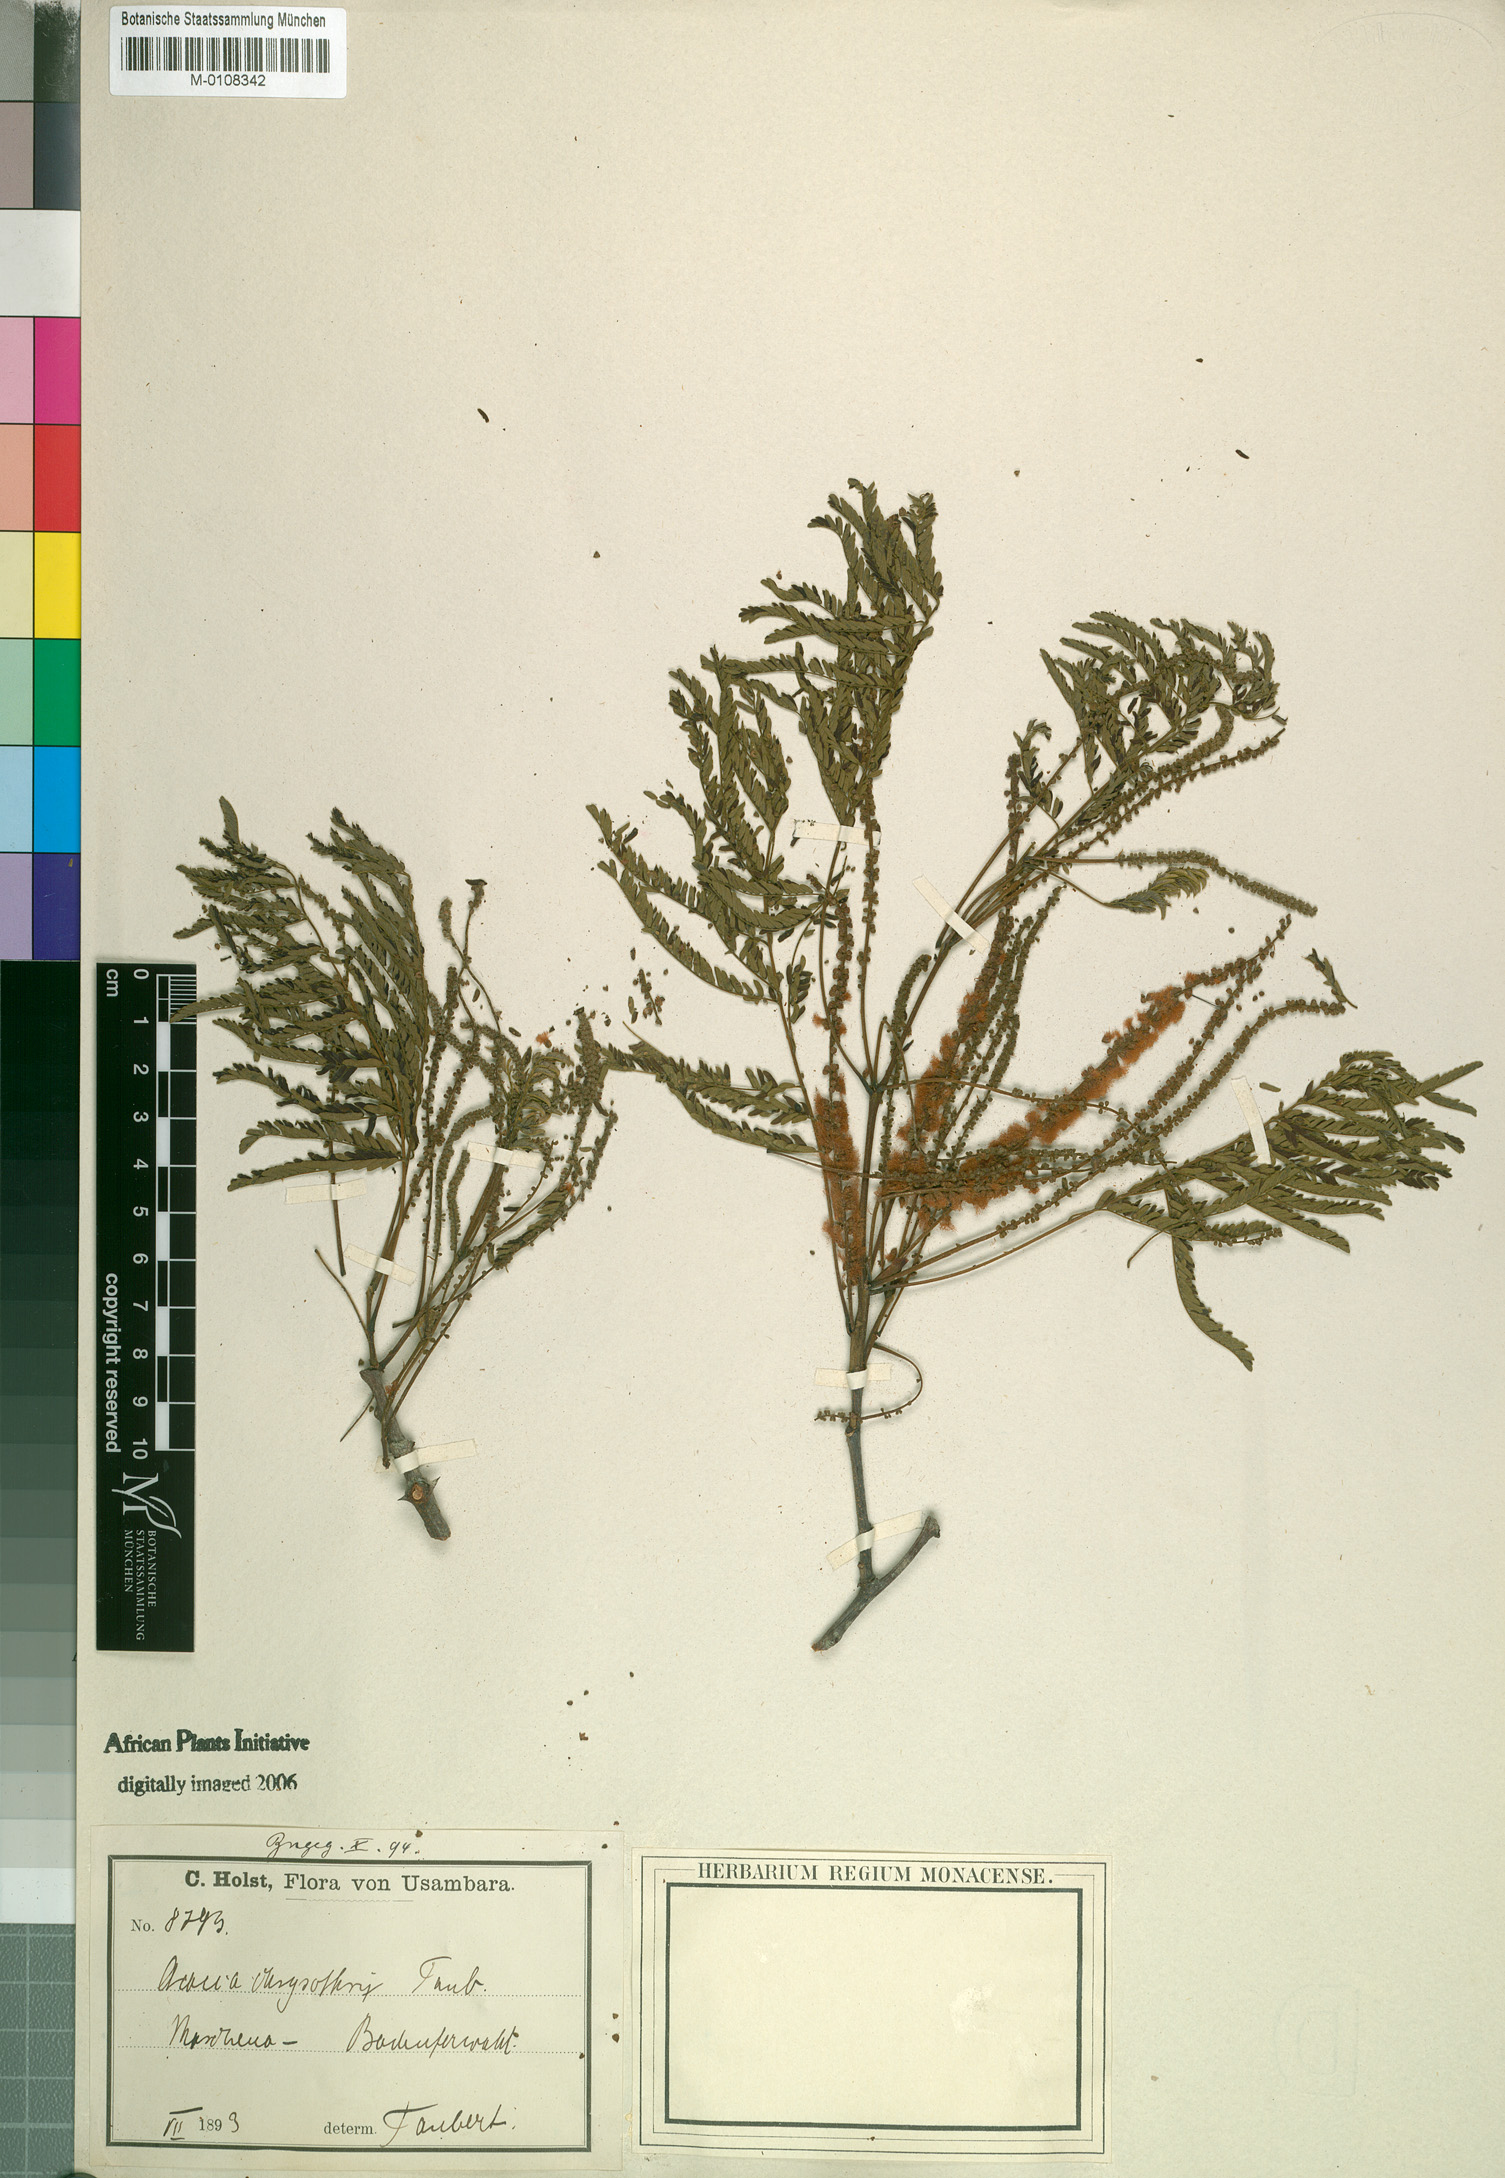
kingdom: Plantae
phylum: Tracheophyta
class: Magnoliopsida
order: Fabales
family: Fabaceae
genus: Senegalia
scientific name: Senegalia rovumae
